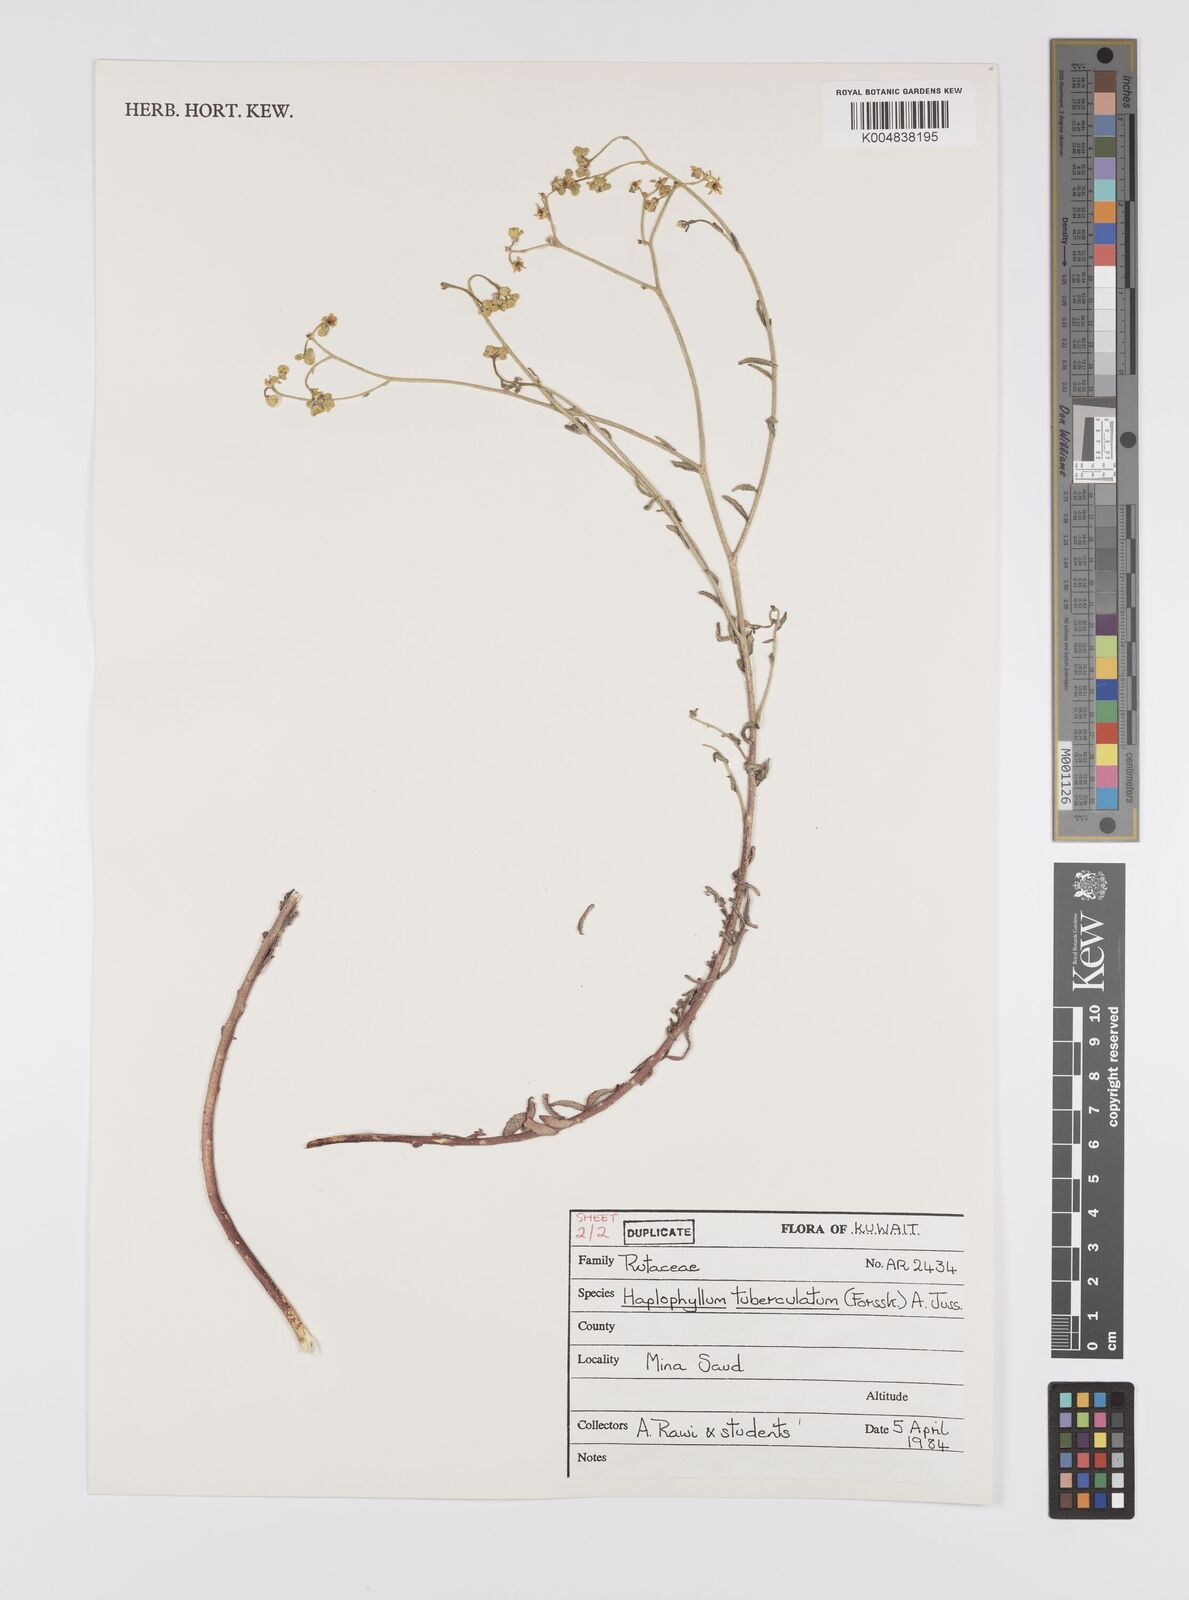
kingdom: Plantae
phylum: Tracheophyta
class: Magnoliopsida
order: Sapindales
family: Rutaceae
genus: Haplophyllum
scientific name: Haplophyllum tuberculatum
